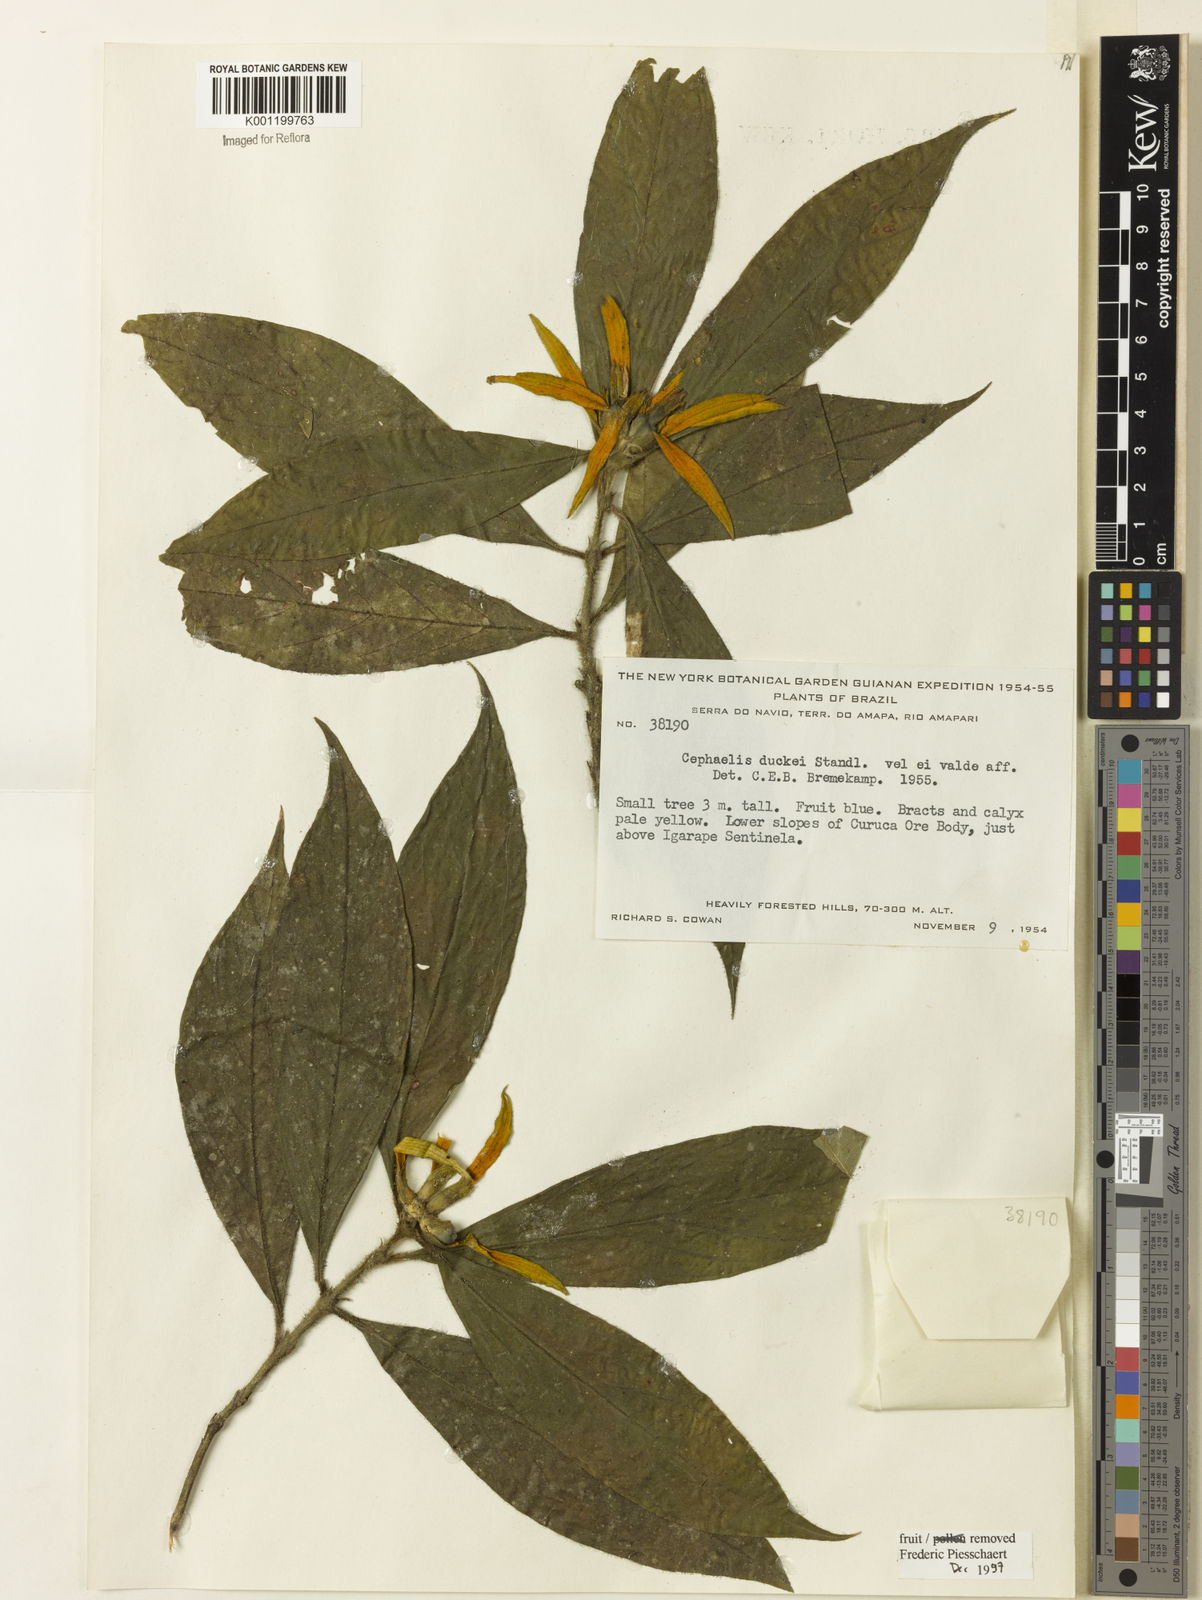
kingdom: Plantae
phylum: Tracheophyta
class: Magnoliopsida
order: Gentianales
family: Rubiaceae
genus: Palicourea
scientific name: Palicourea spectabilis
